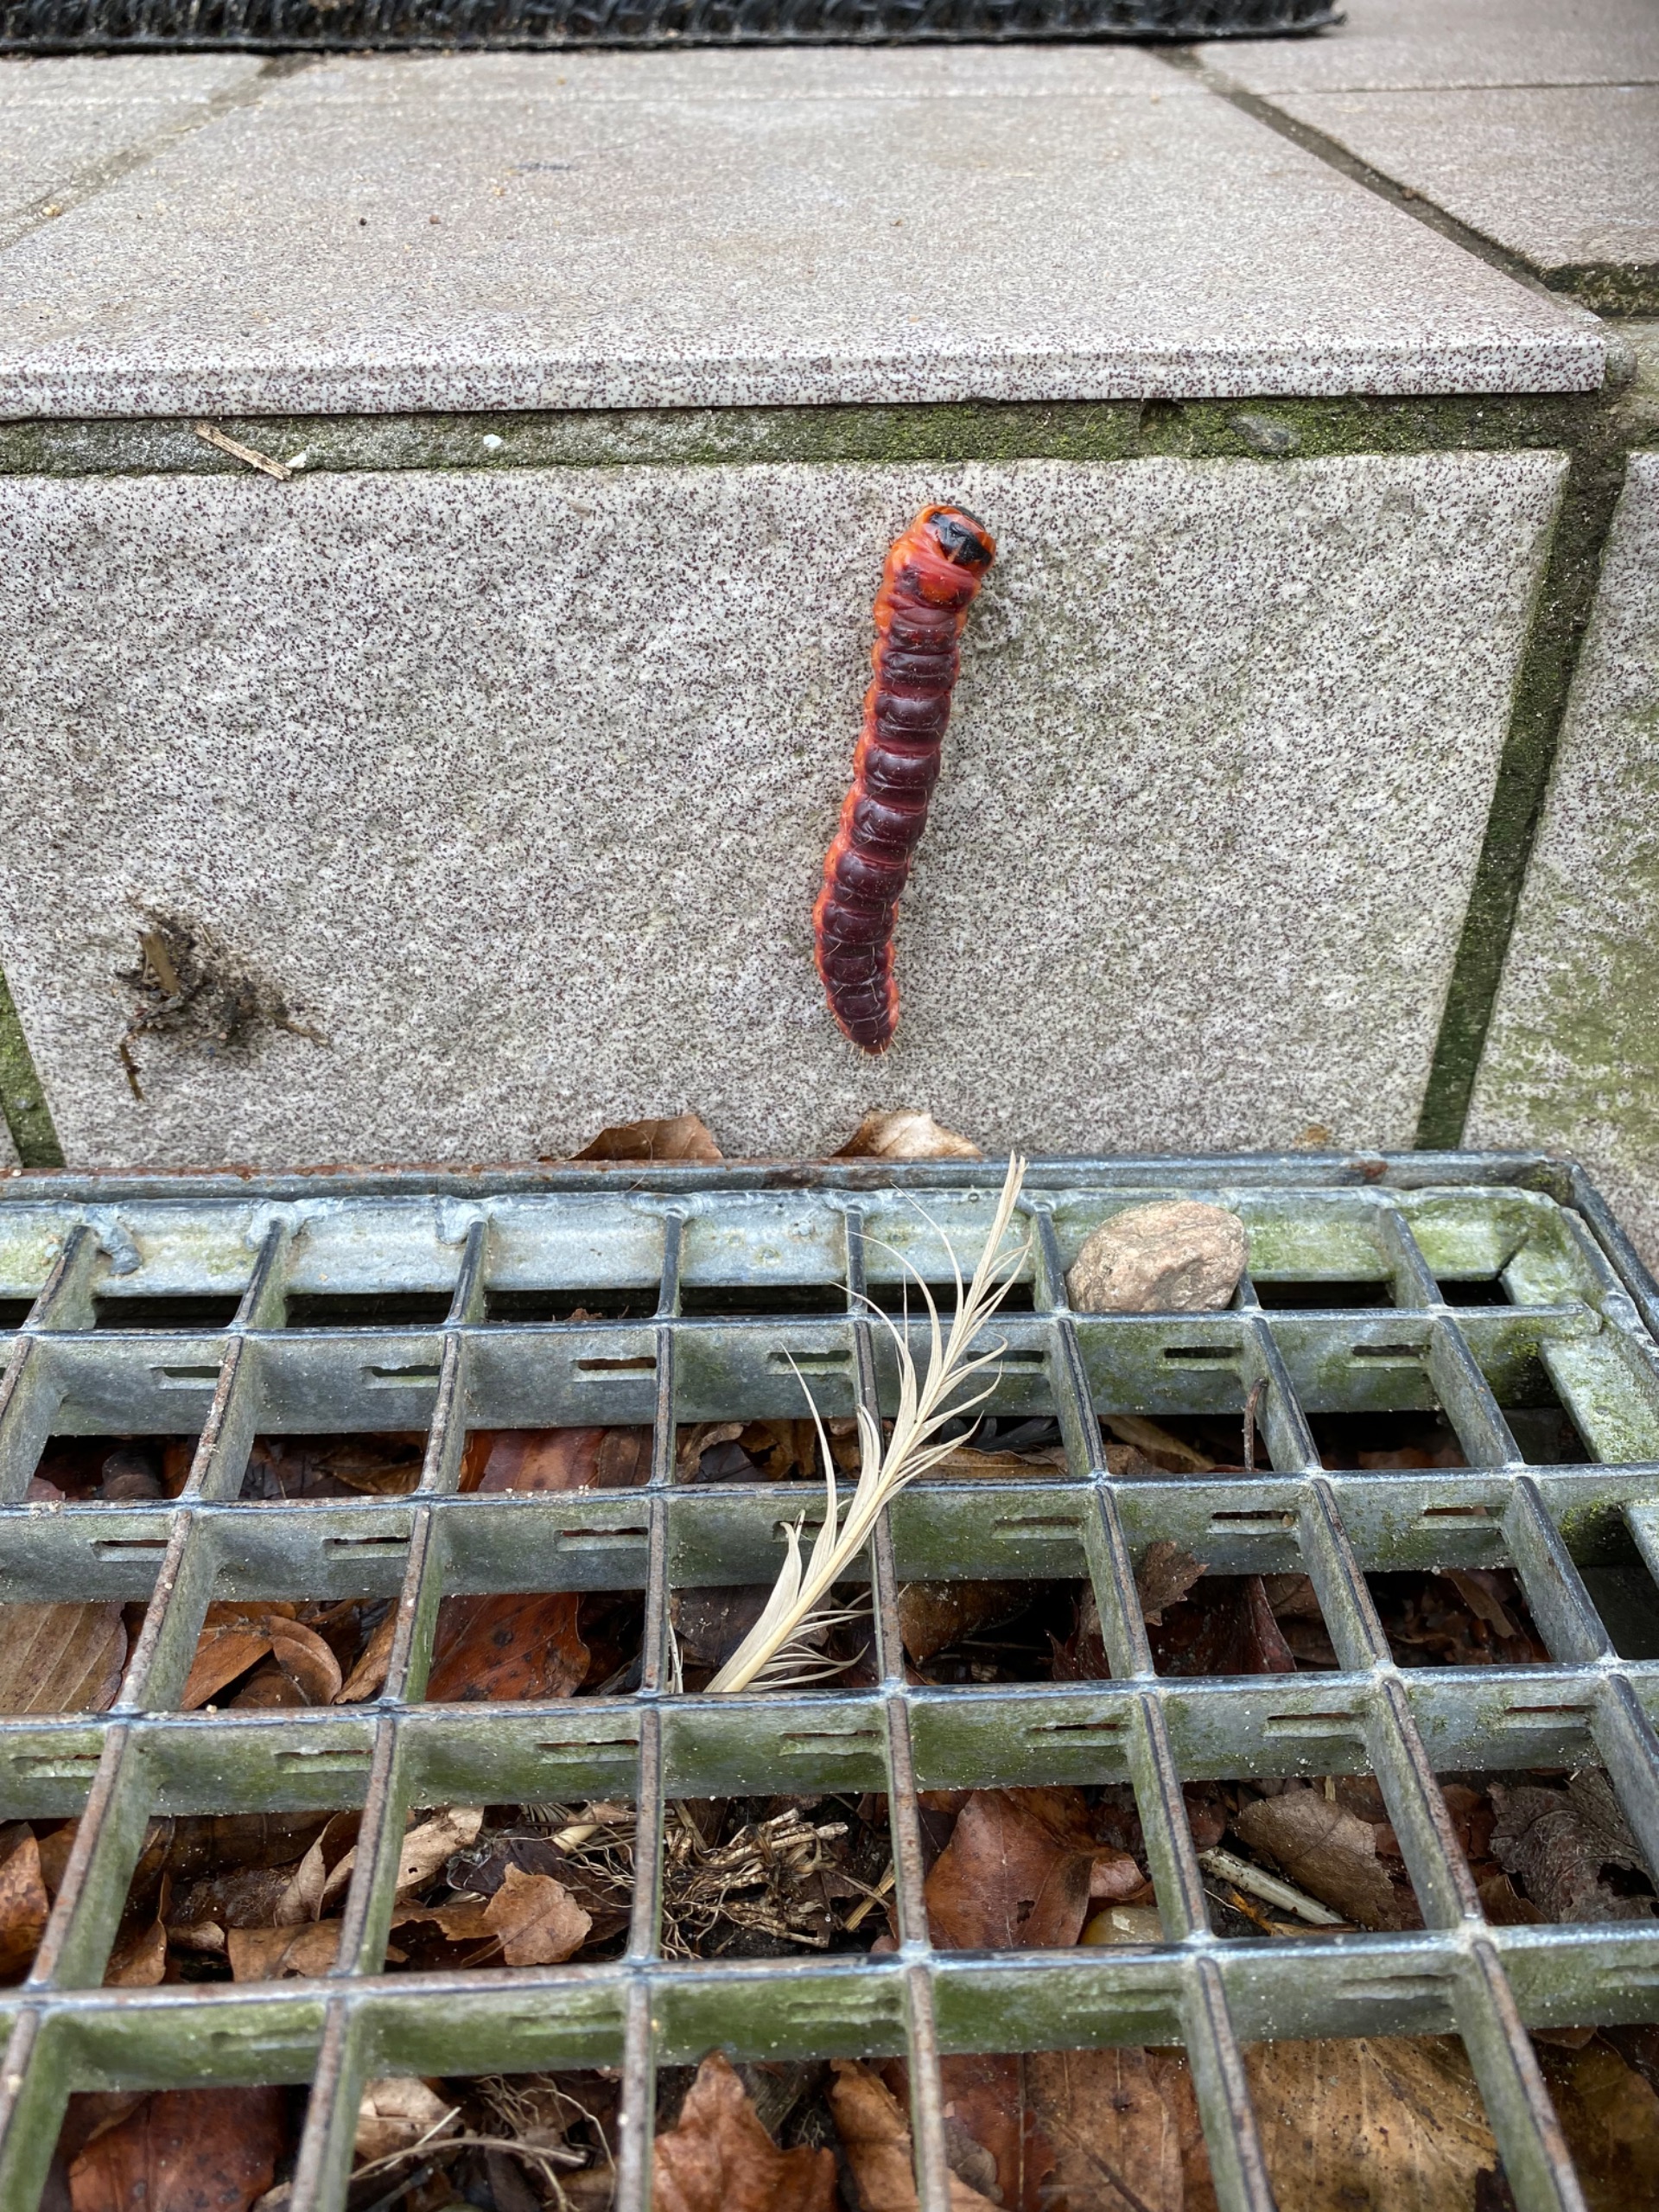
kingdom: Animalia
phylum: Arthropoda
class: Insecta
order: Lepidoptera
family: Cossidae
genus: Cossus
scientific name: Cossus cossus
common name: Pileborer
